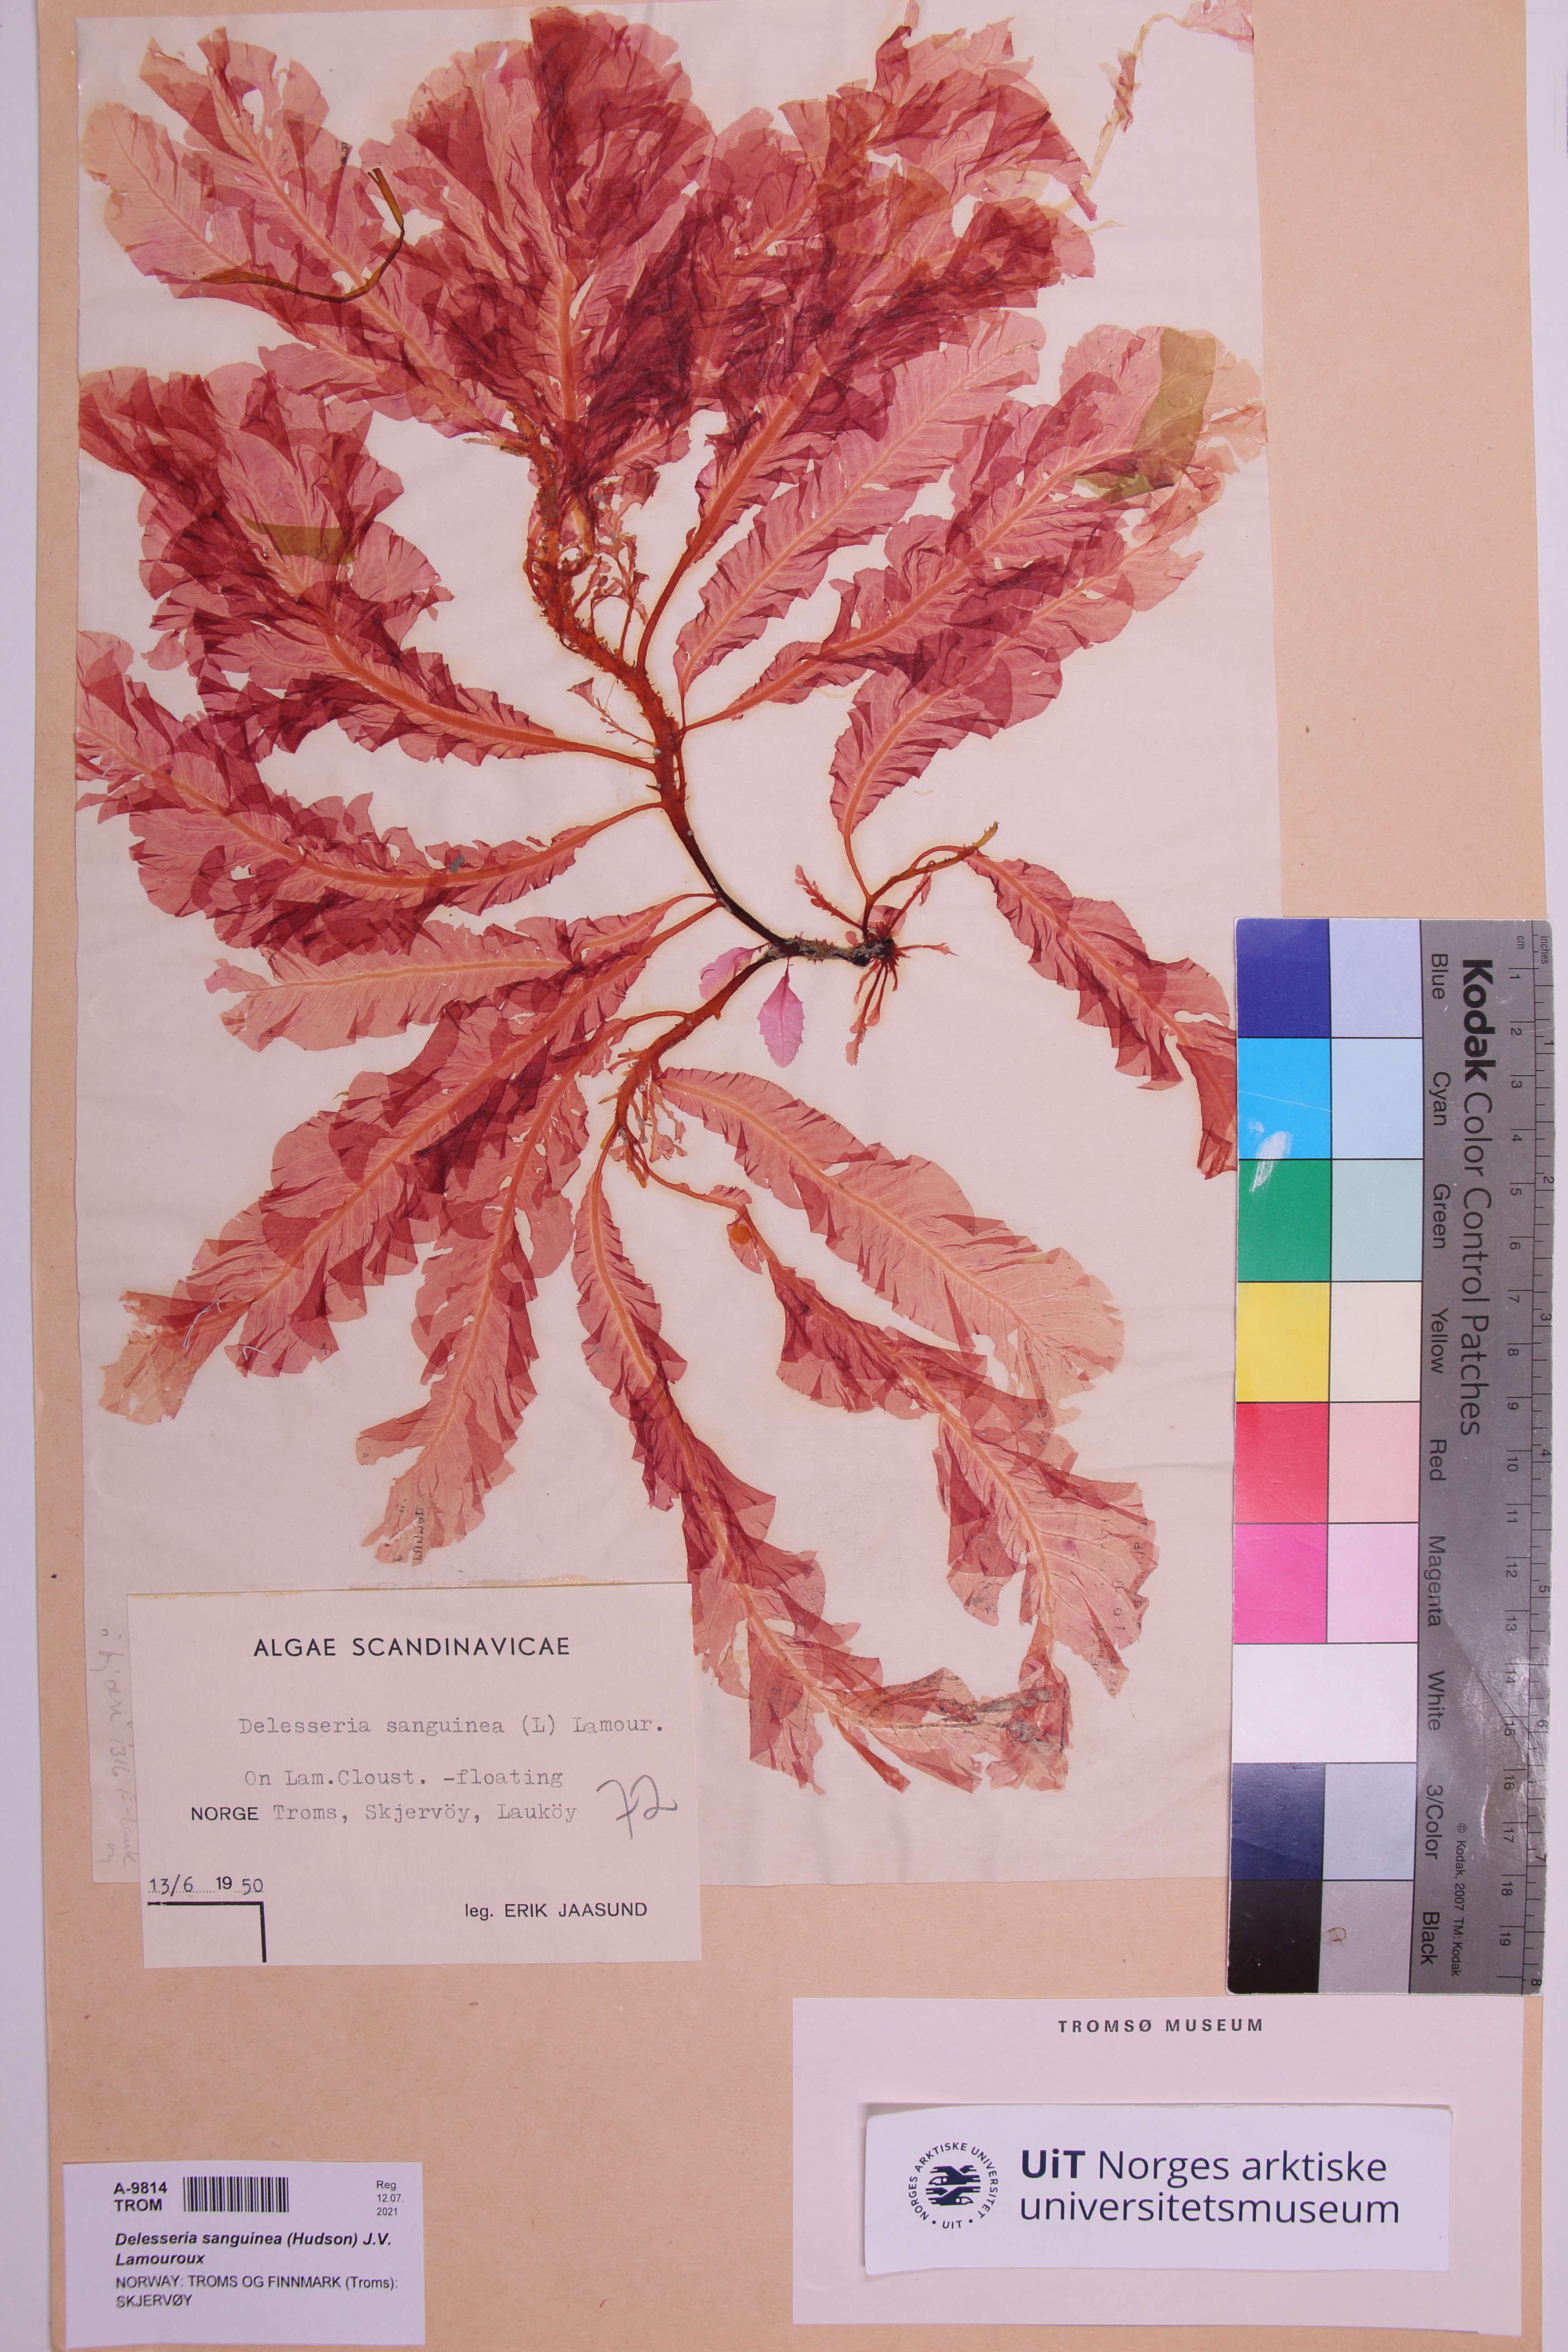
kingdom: Plantae
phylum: Rhodophyta
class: Florideophyceae
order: Ceramiales
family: Delesseriaceae
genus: Delesseria
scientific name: Delesseria sanguinea
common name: Sea beech
